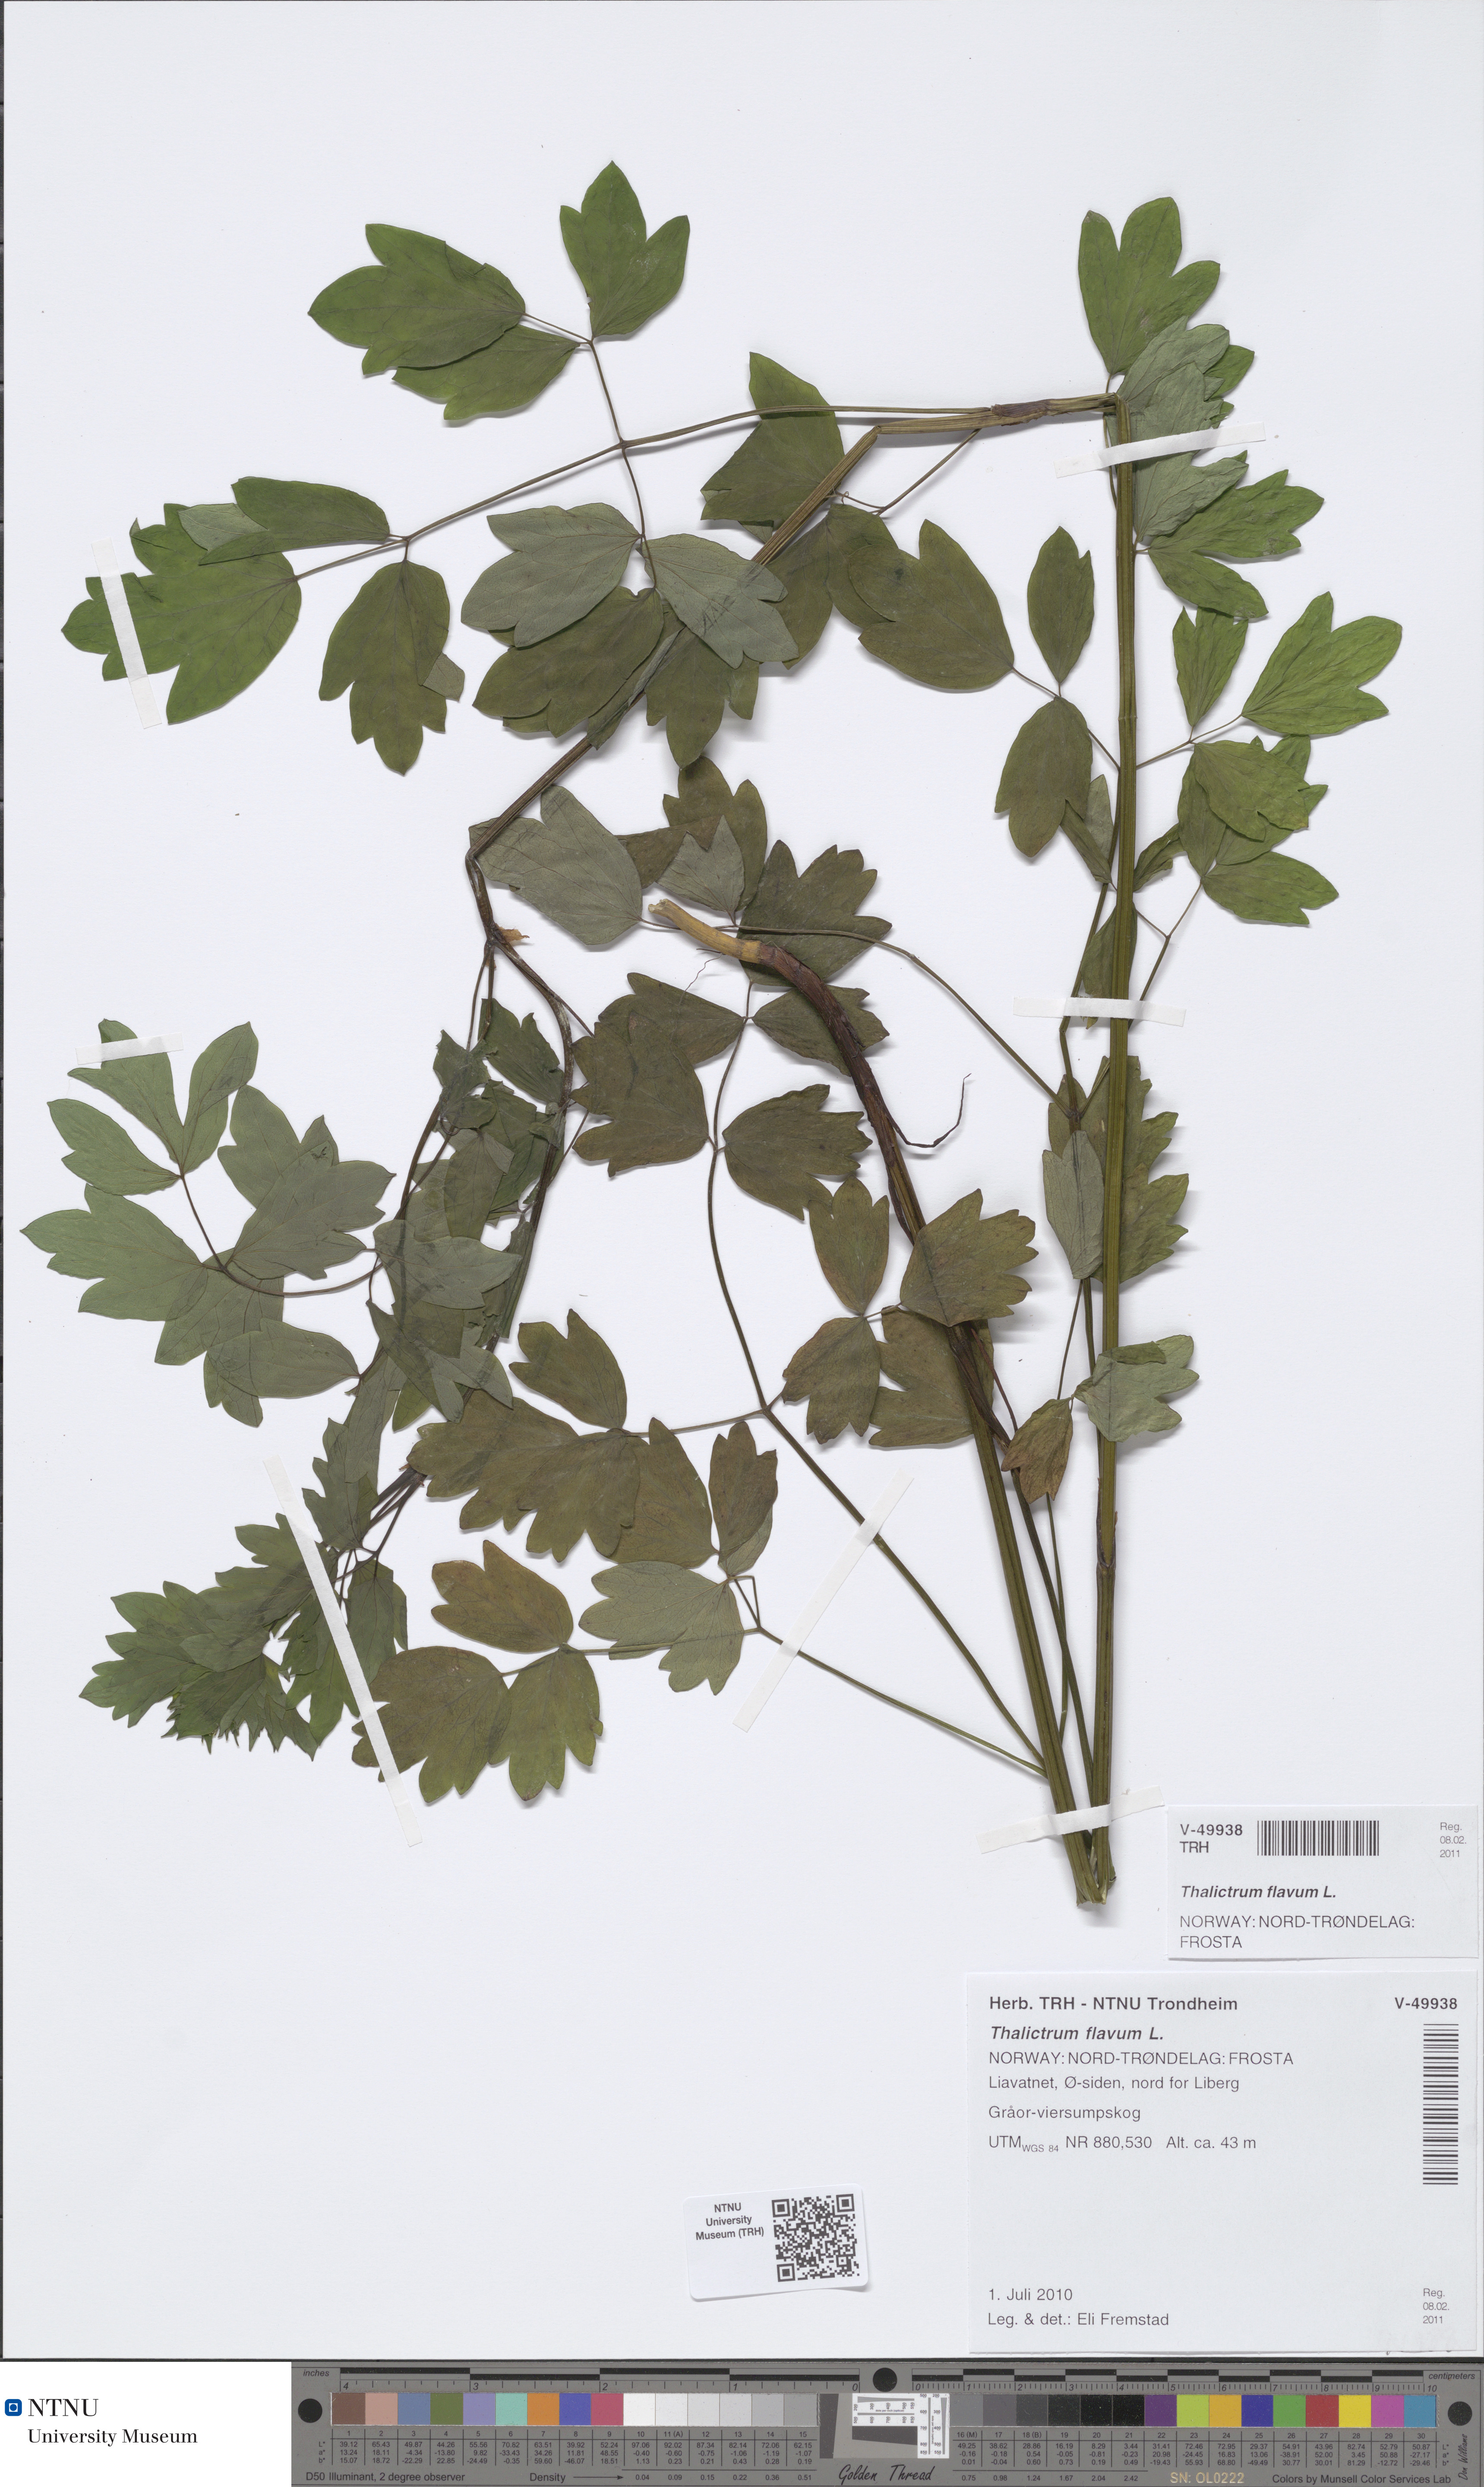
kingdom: Plantae
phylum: Tracheophyta
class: Magnoliopsida
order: Ranunculales
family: Ranunculaceae
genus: Thalictrum
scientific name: Thalictrum flavum
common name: Common meadow-rue
